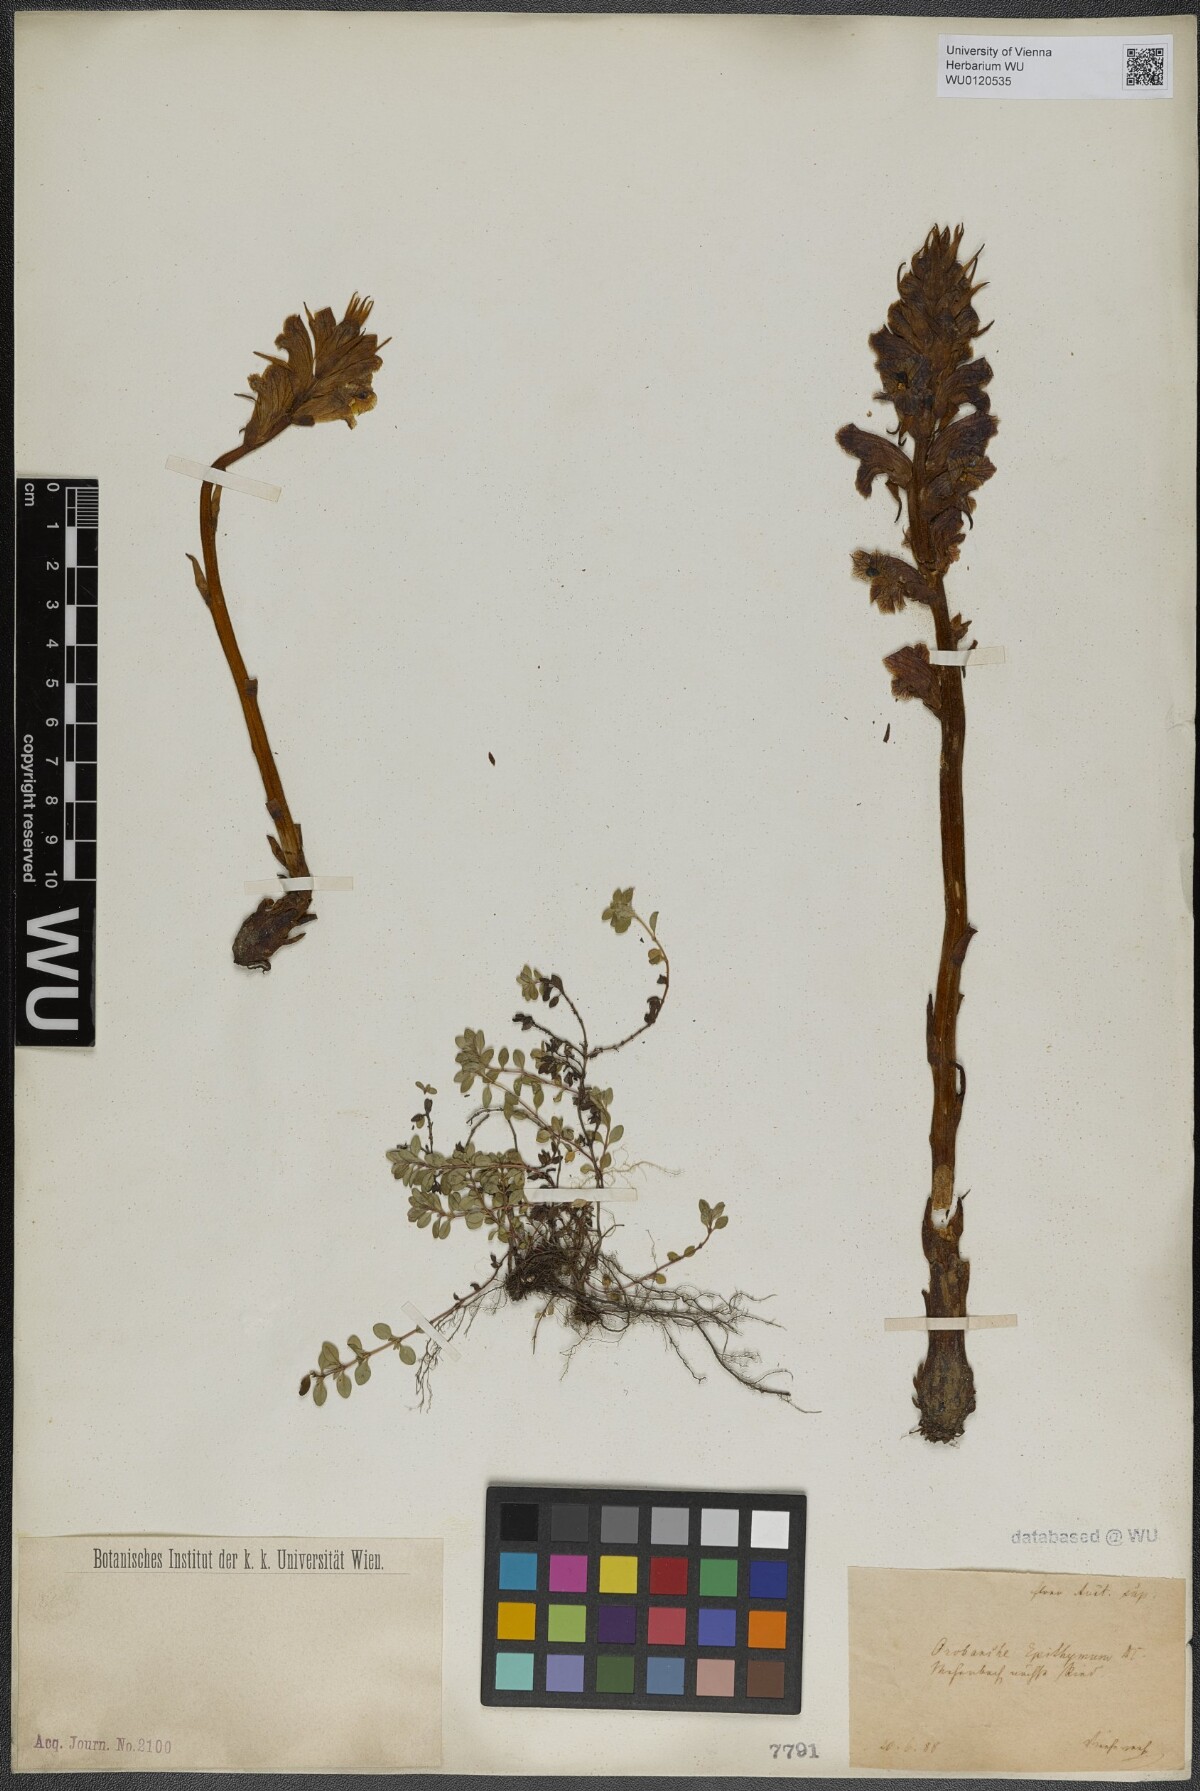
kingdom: Plantae
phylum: Tracheophyta
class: Magnoliopsida
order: Lamiales
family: Orobanchaceae
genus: Orobanche
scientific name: Orobanche alba
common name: Thyme broomrape
